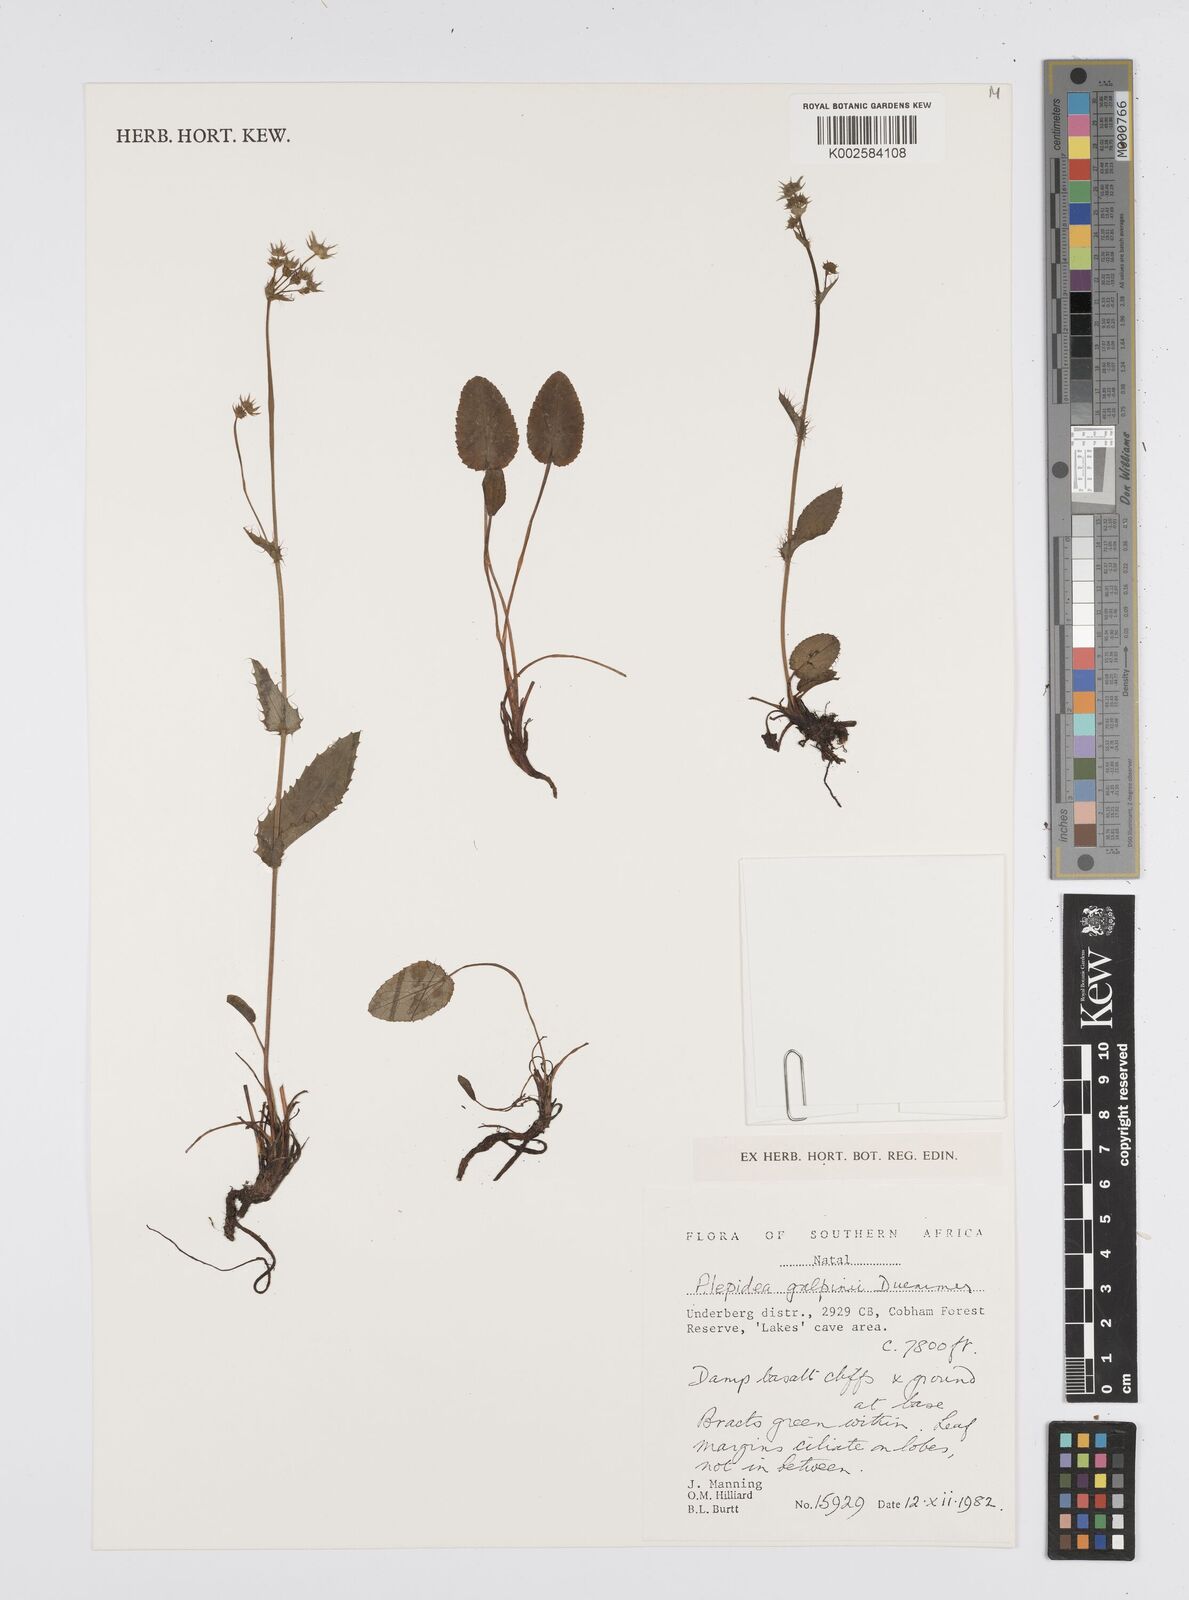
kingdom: Plantae
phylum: Tracheophyta
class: Magnoliopsida
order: Apiales
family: Apiaceae
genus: Alepidea
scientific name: Alepidea galpinii
